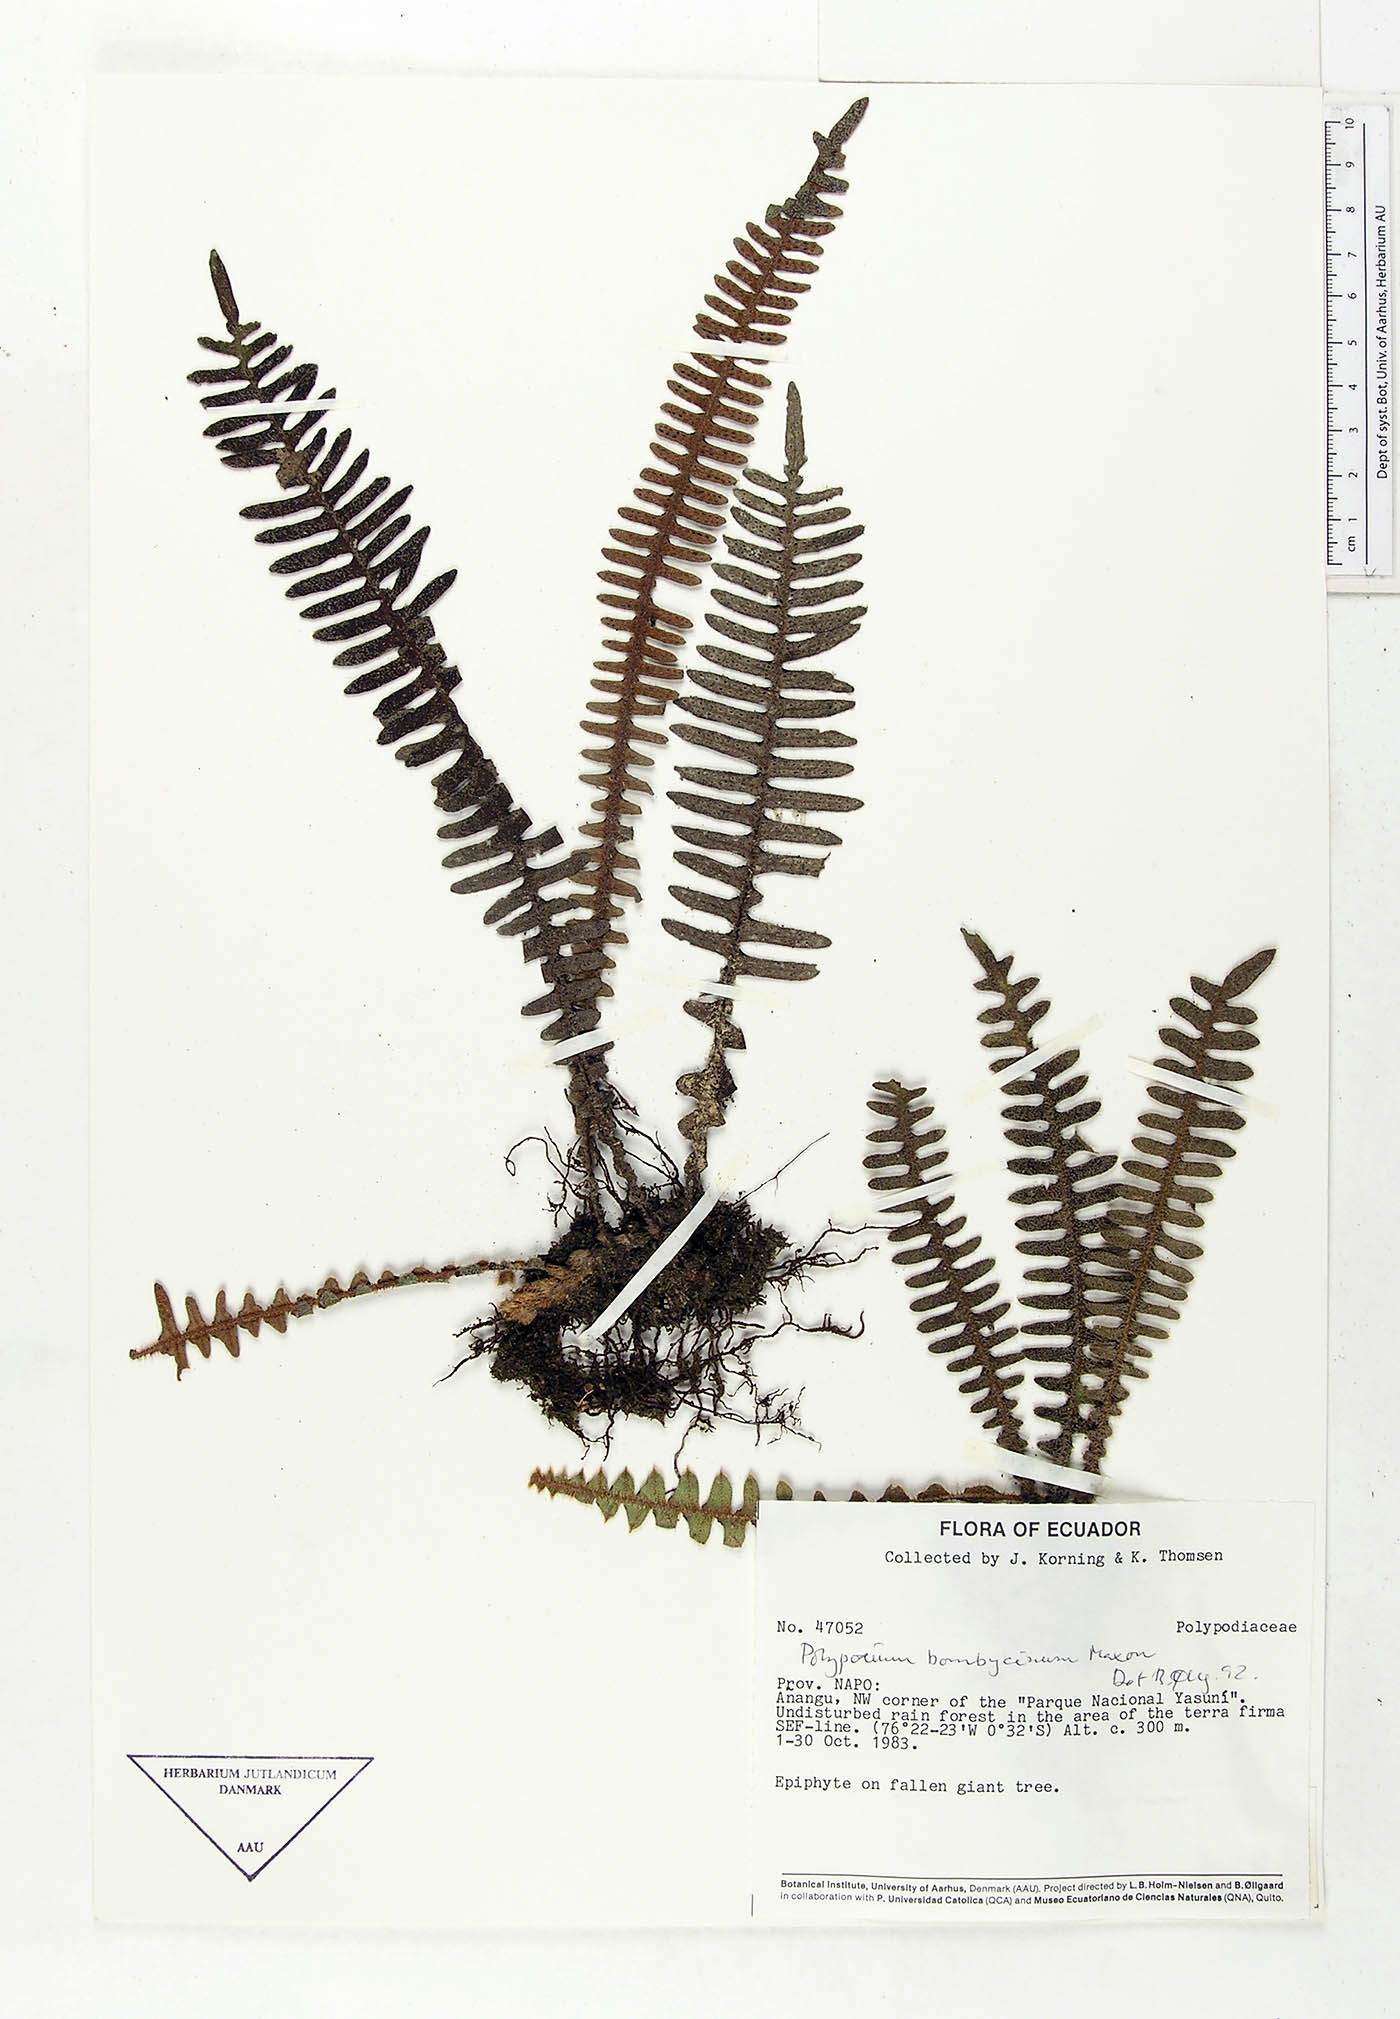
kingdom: Plantae
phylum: Tracheophyta
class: Polypodiopsida
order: Polypodiales
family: Polypodiaceae
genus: Pleopeltis
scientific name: Pleopeltis bombycina
